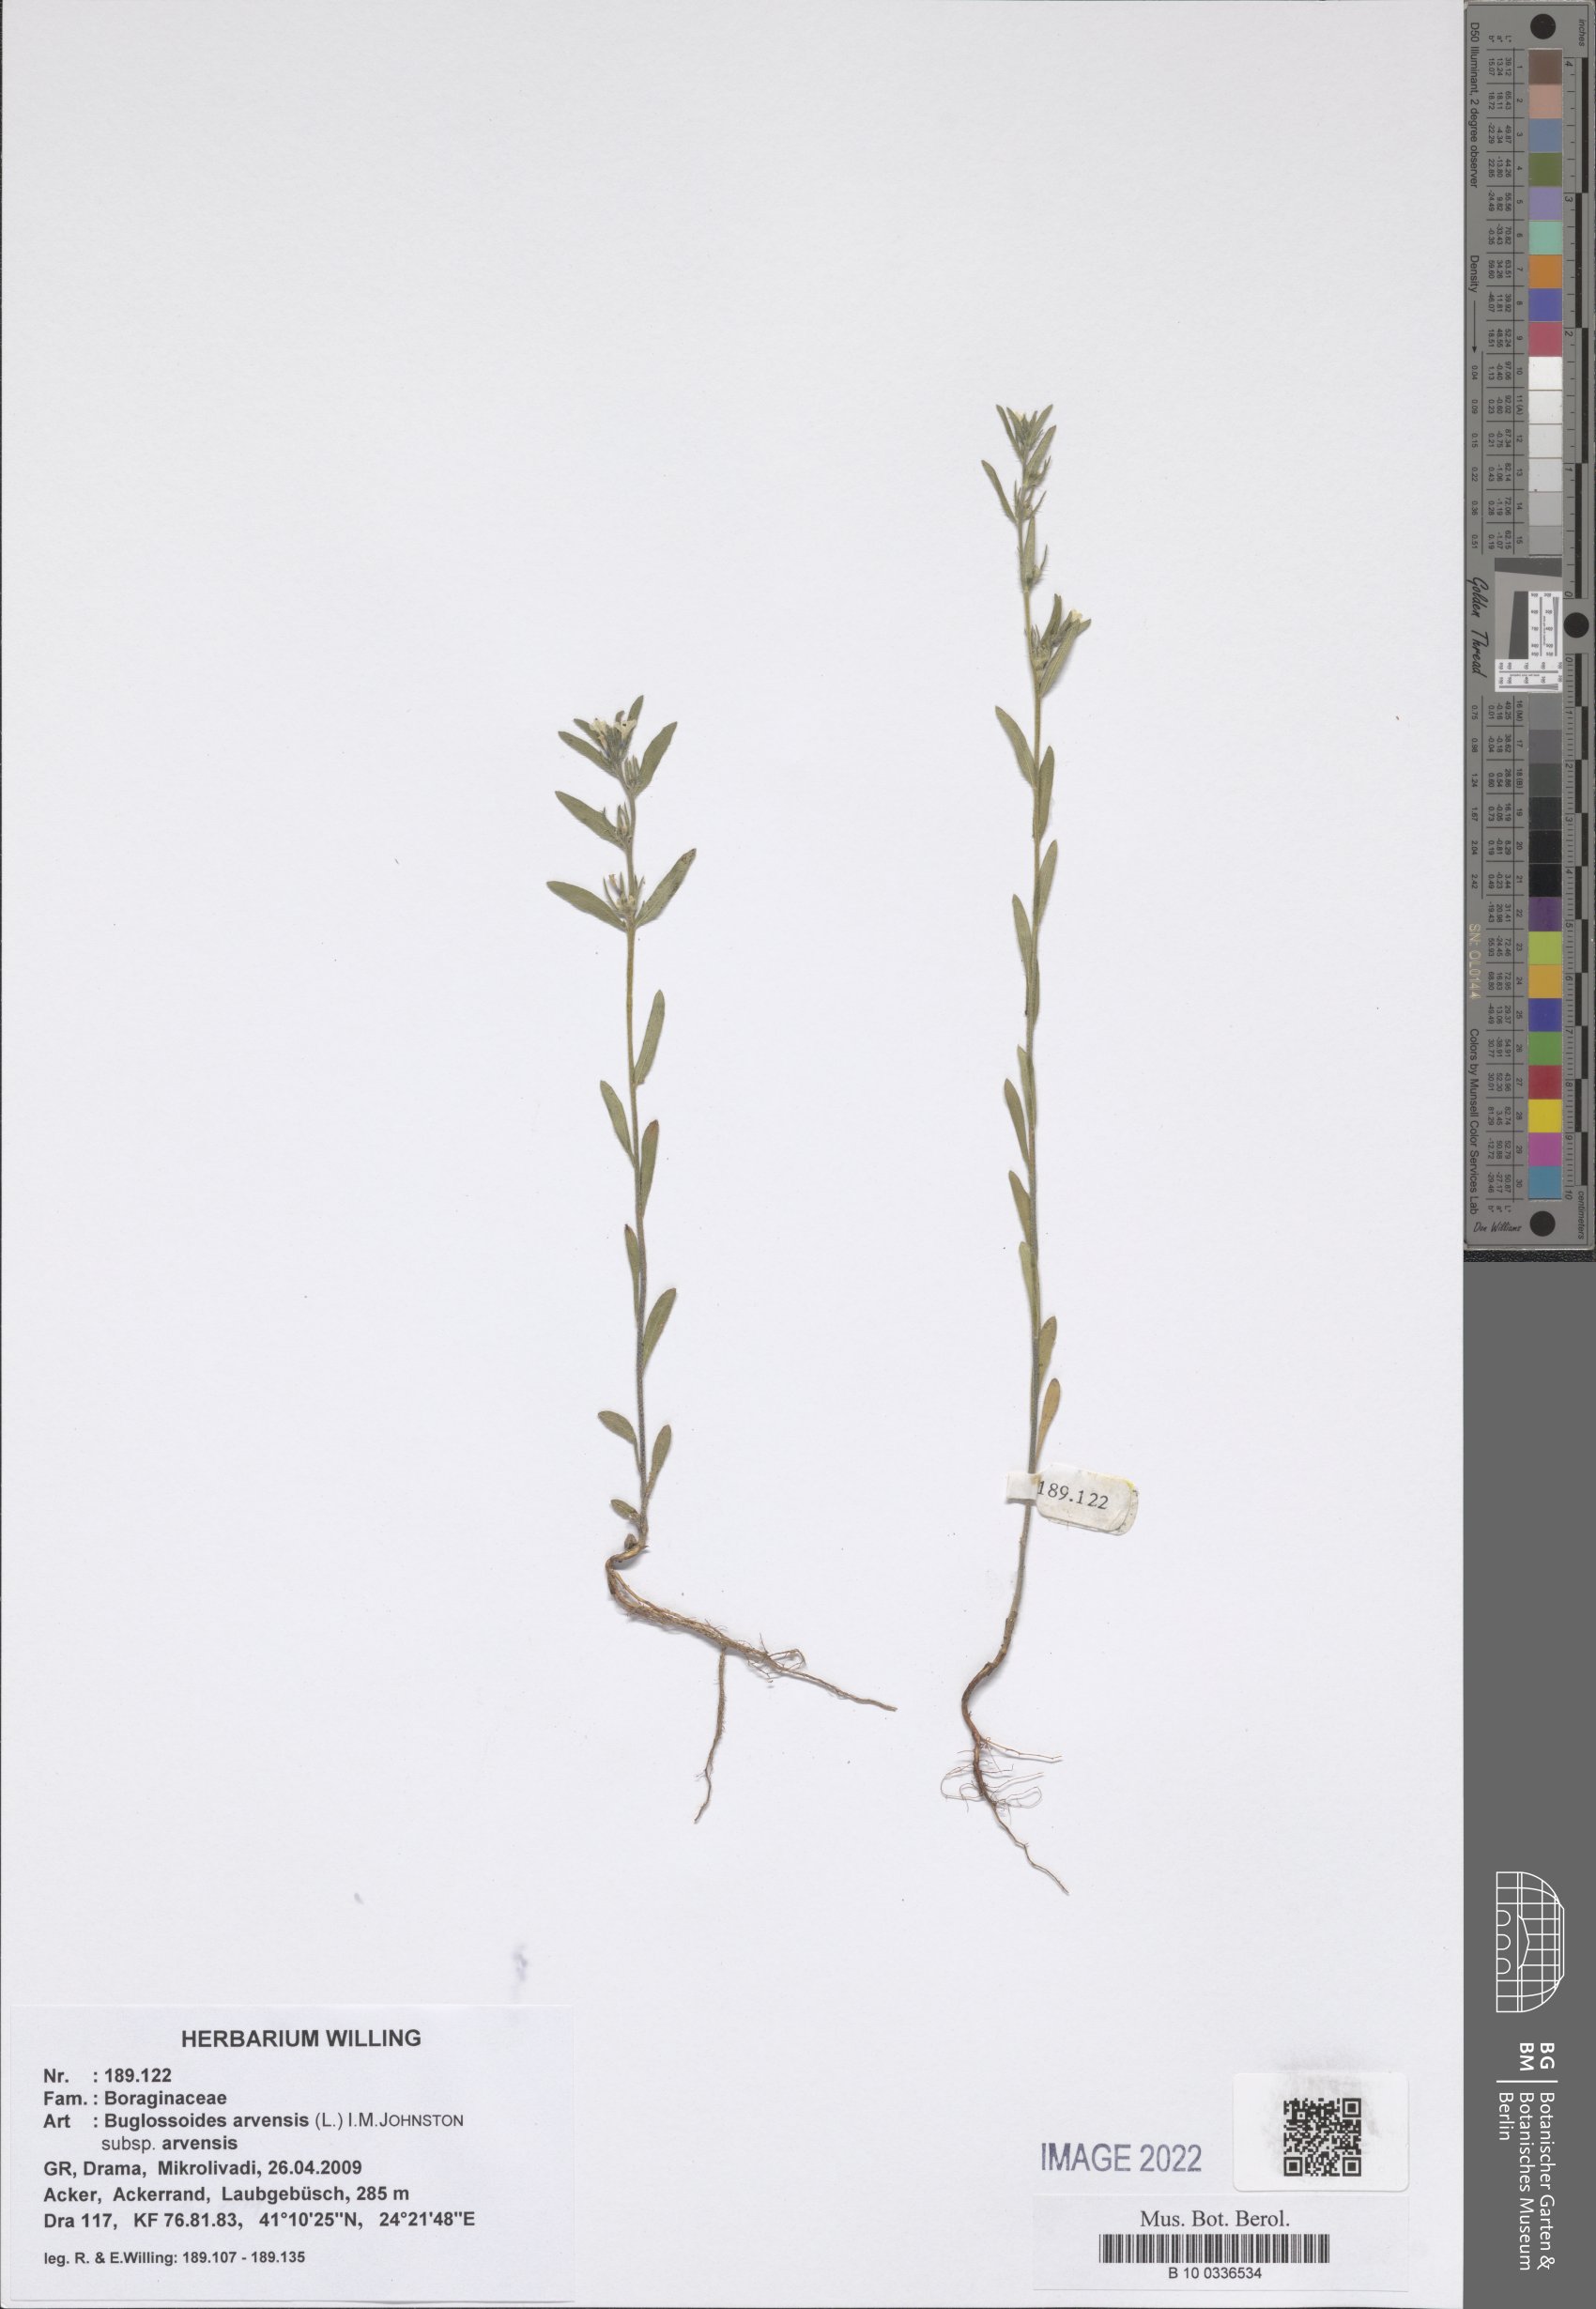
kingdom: Plantae
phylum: Tracheophyta
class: Magnoliopsida
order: Boraginales
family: Boraginaceae
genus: Buglossoides
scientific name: Buglossoides arvensis
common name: Corn gromwell
